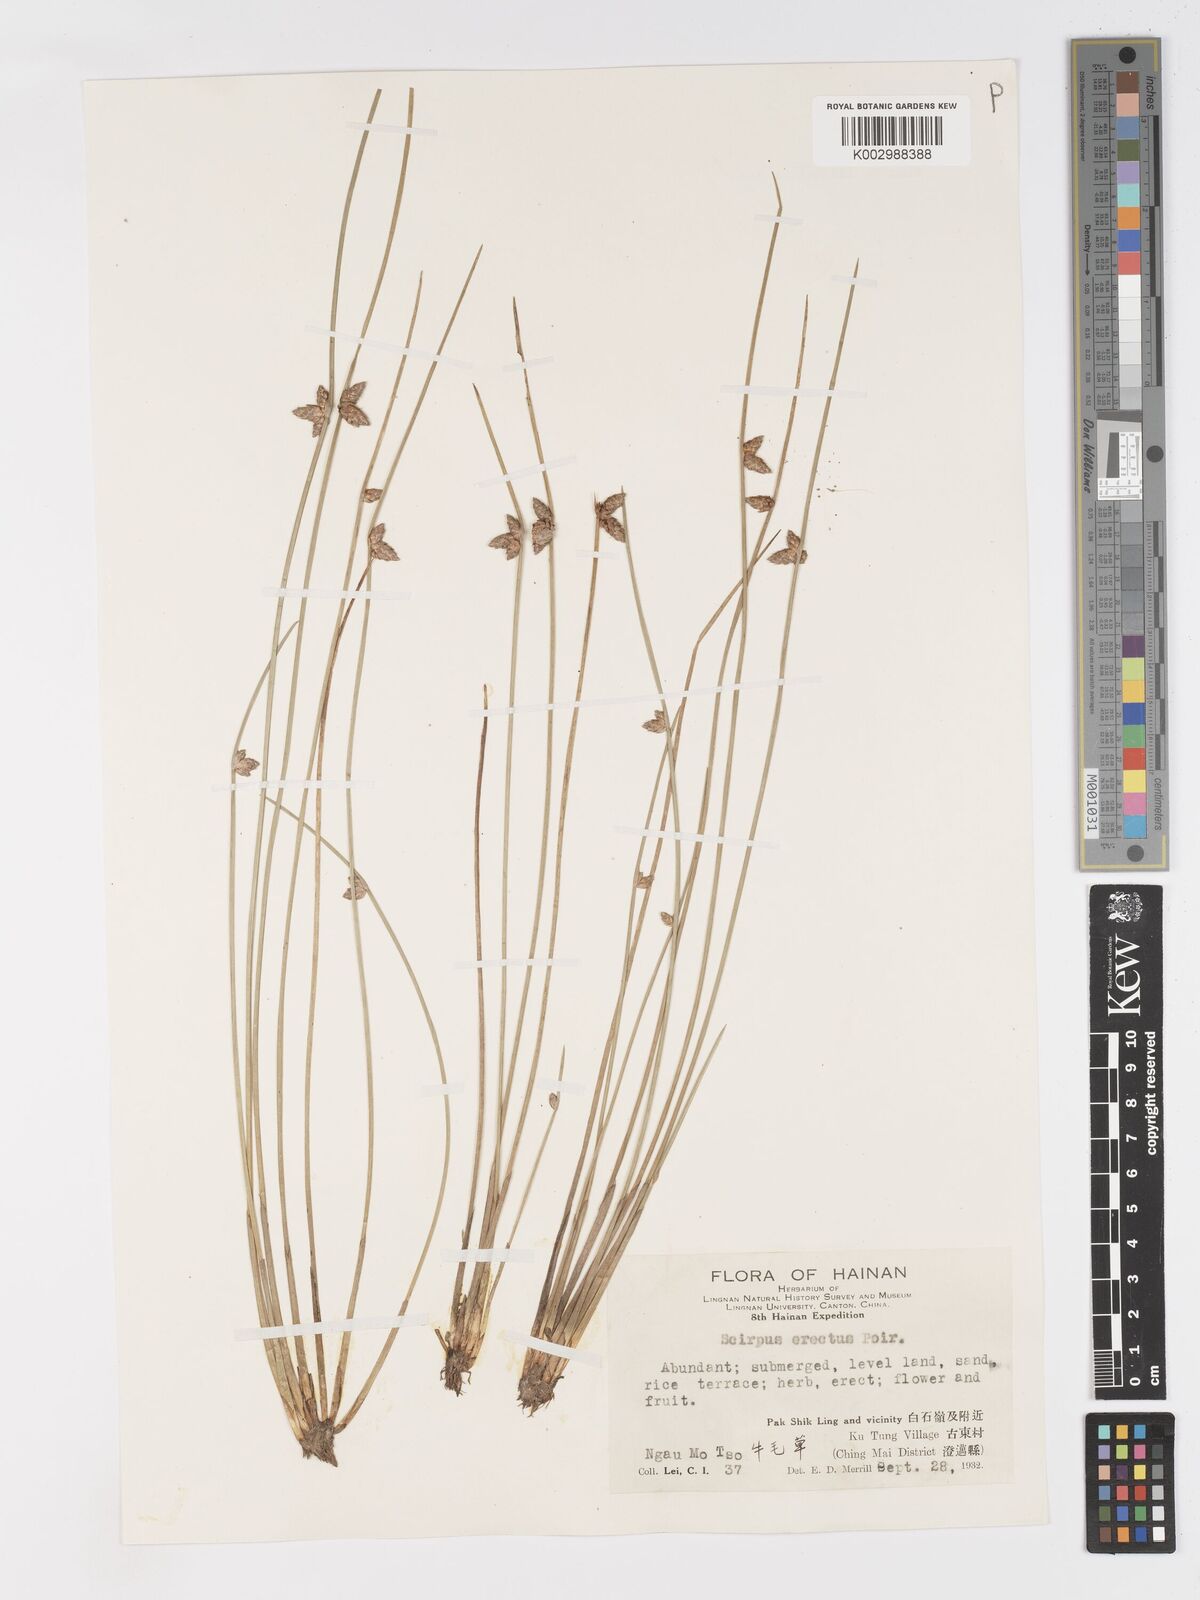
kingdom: Plantae
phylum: Tracheophyta
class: Liliopsida
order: Poales
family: Cyperaceae
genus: Schoenoplectiella
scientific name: Schoenoplectiella erecta
